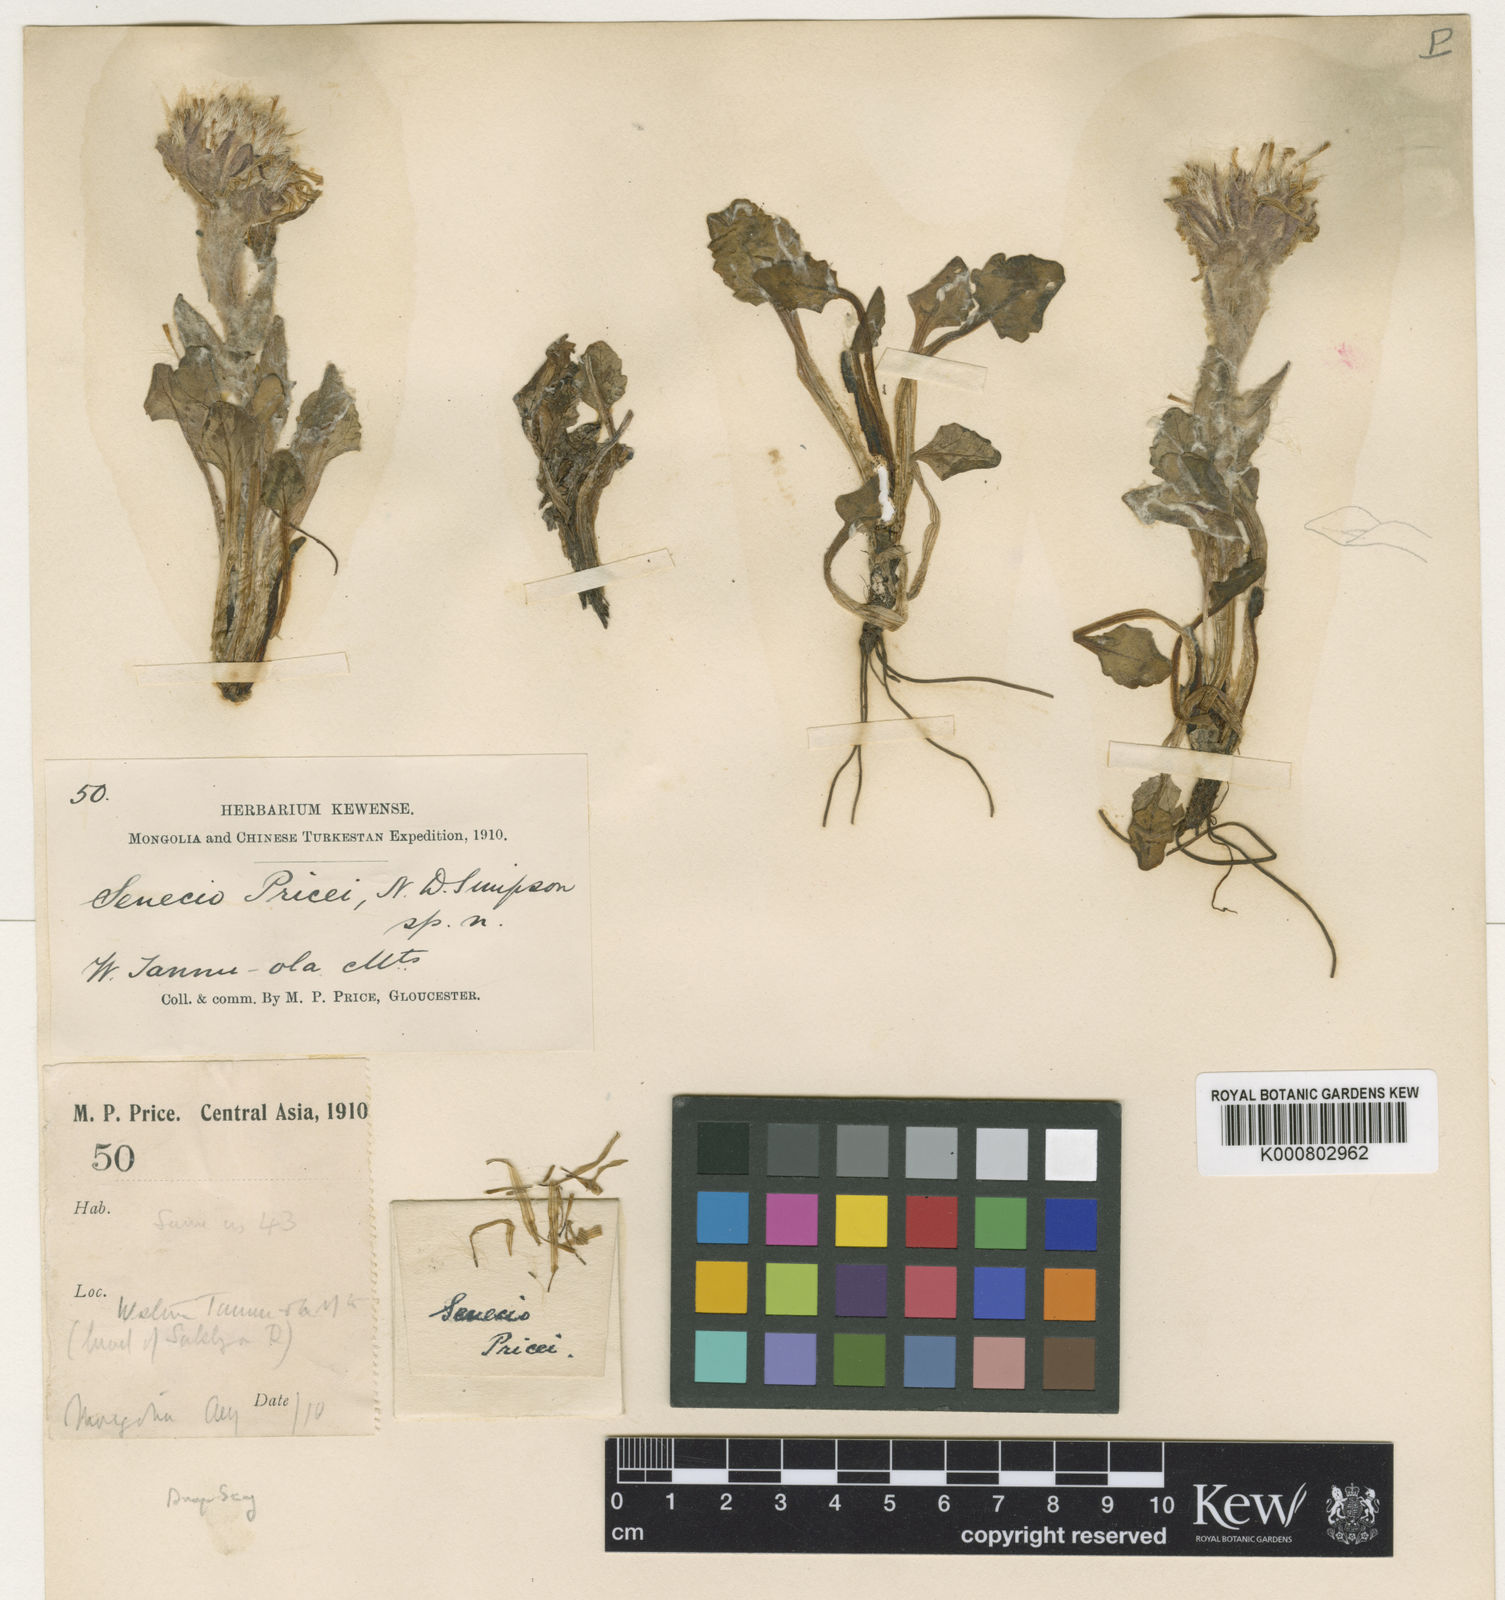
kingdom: Plantae
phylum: Tracheophyta
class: Magnoliopsida
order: Asterales
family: Asteraceae
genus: Tephroseris
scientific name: Tephroseris pricei
